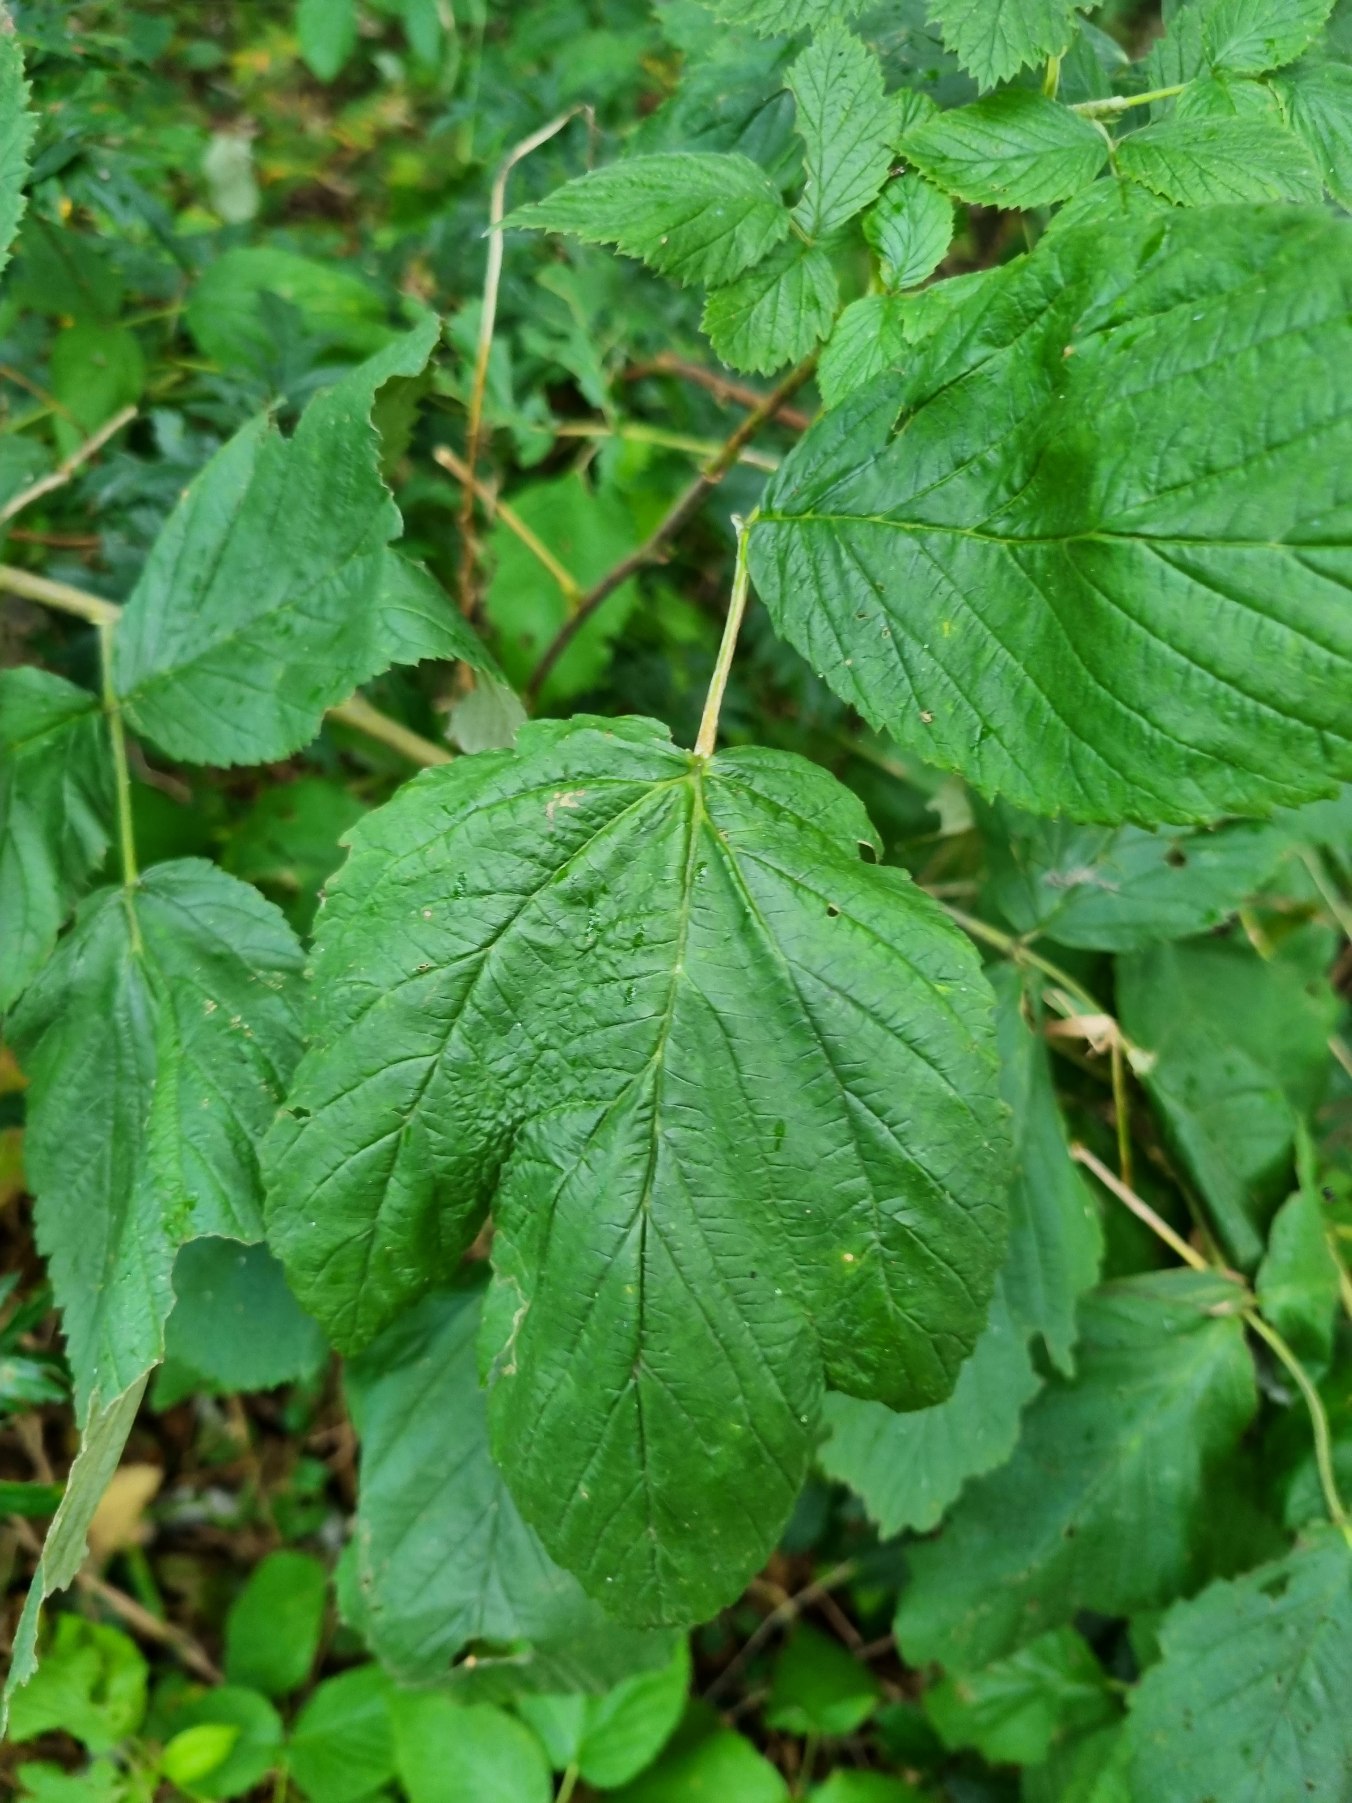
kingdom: Plantae
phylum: Tracheophyta
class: Magnoliopsida
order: Rosales
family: Rosaceae
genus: Rubus
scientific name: Rubus idaeus
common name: Hindbær
